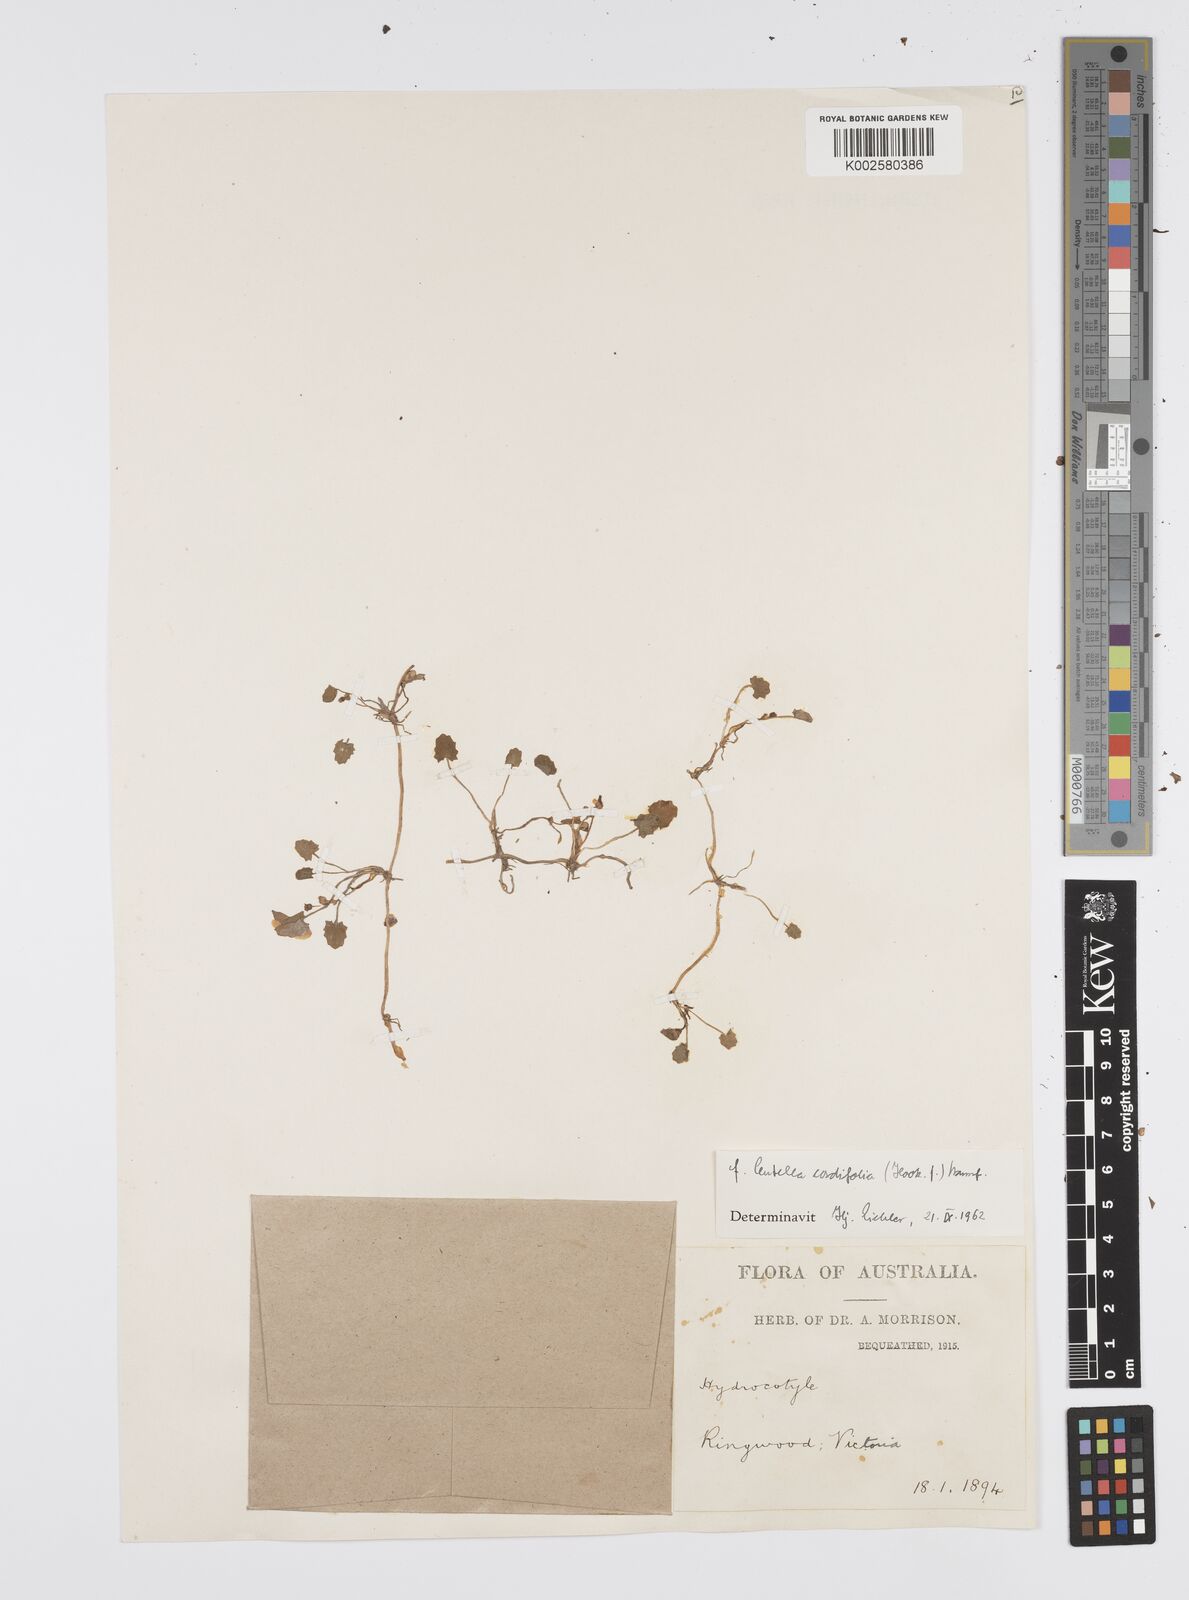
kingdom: Plantae
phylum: Tracheophyta
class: Magnoliopsida
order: Apiales
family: Apiaceae
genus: Centella
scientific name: Centella cordifolia
